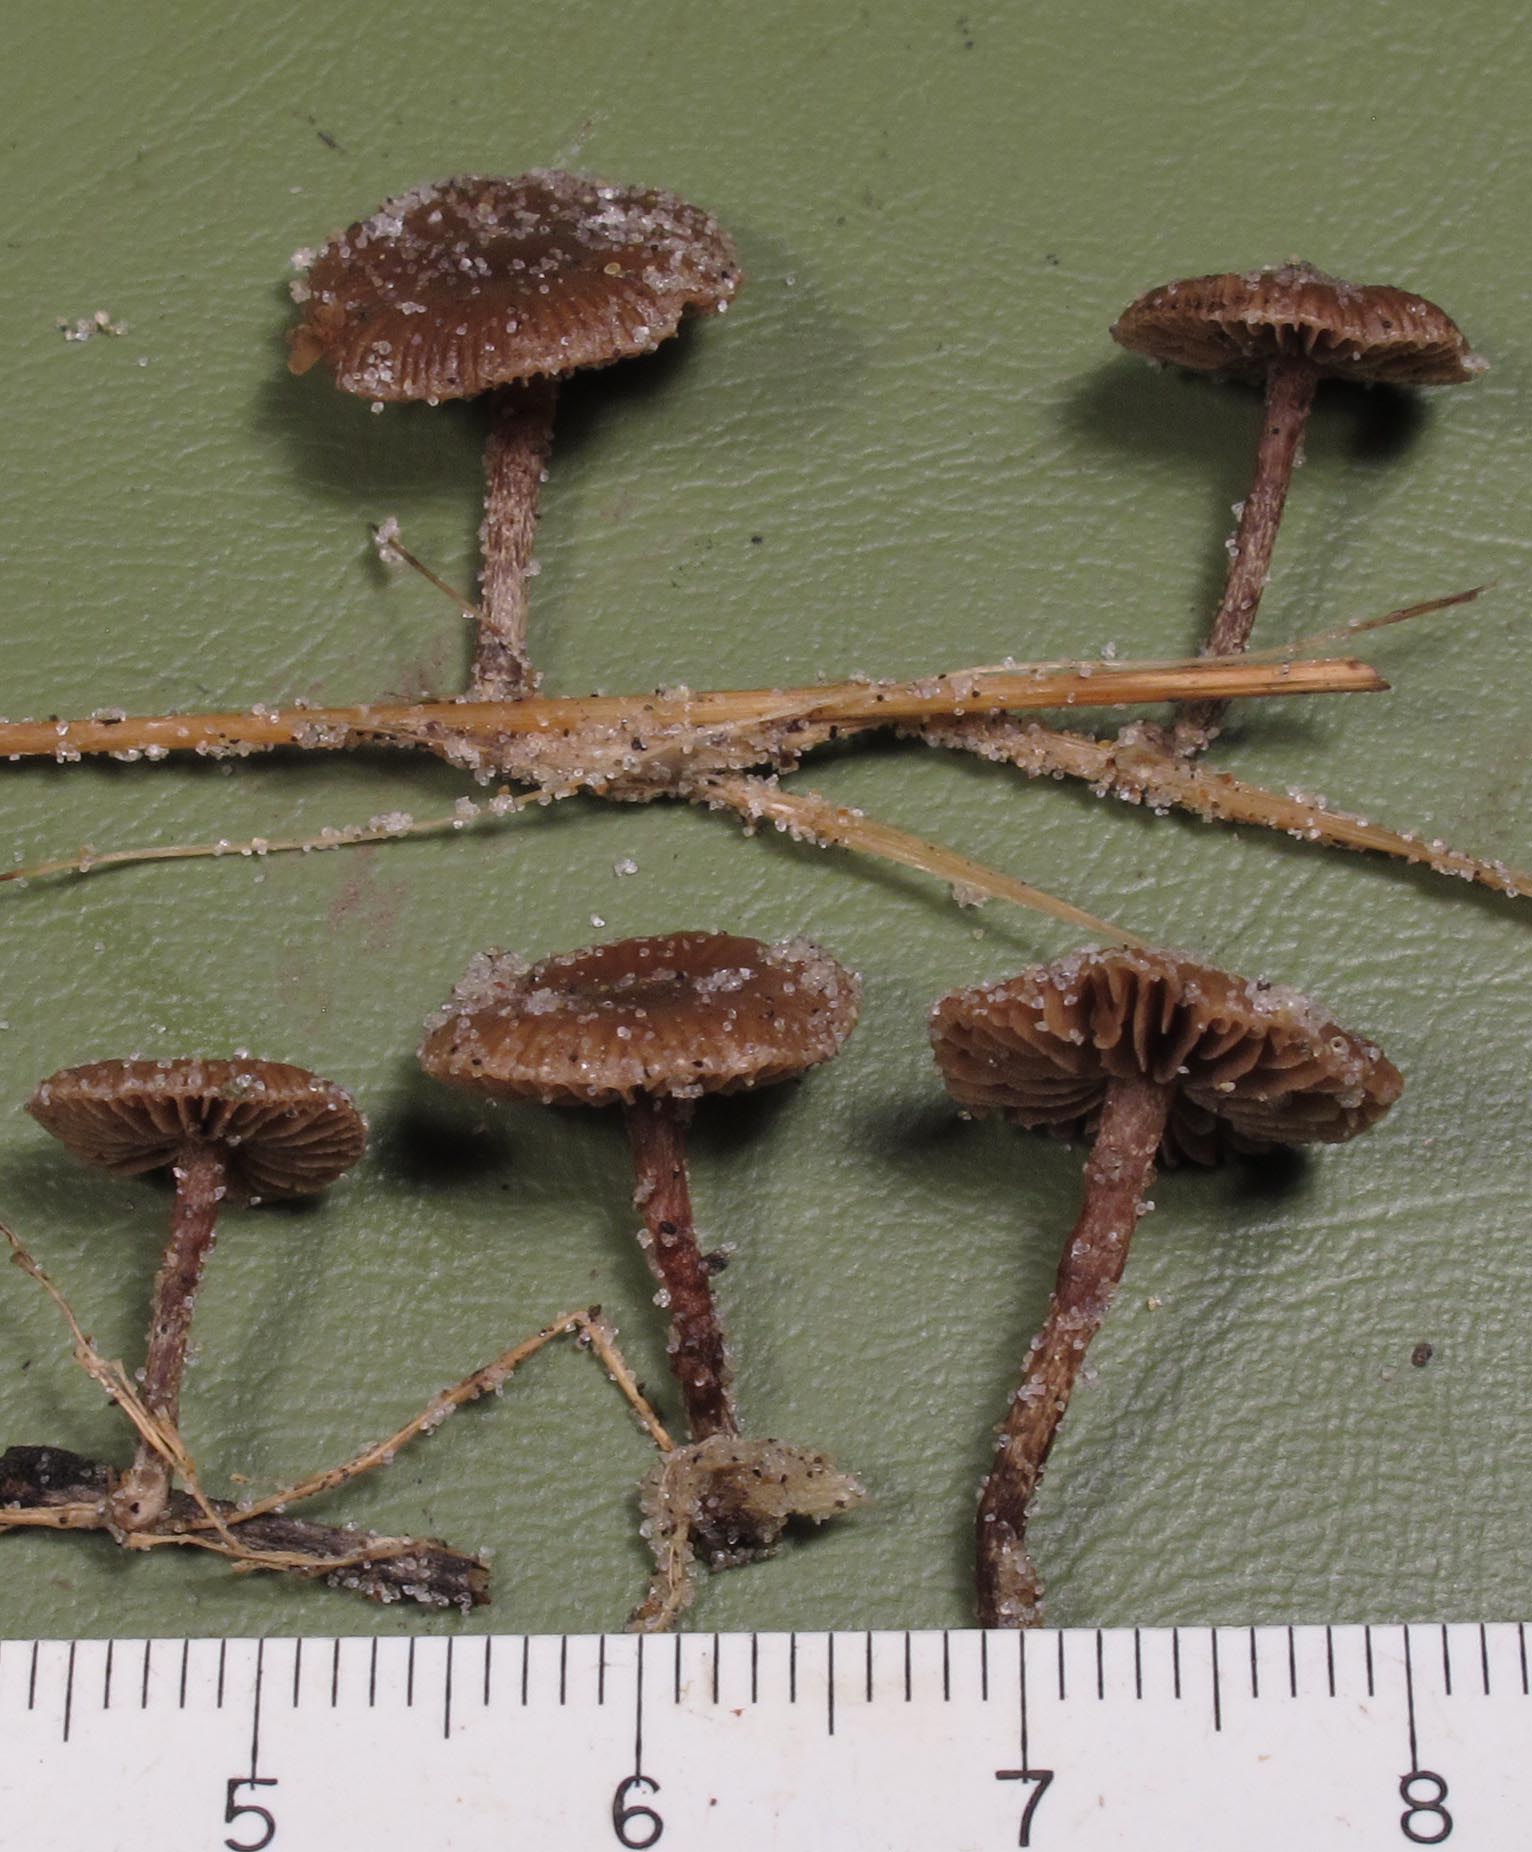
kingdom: Fungi
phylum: Basidiomycota
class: Agaricomycetes
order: Agaricales
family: Strophariaceae
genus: Deconica
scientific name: Deconica crobula
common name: træflis-stråhat
